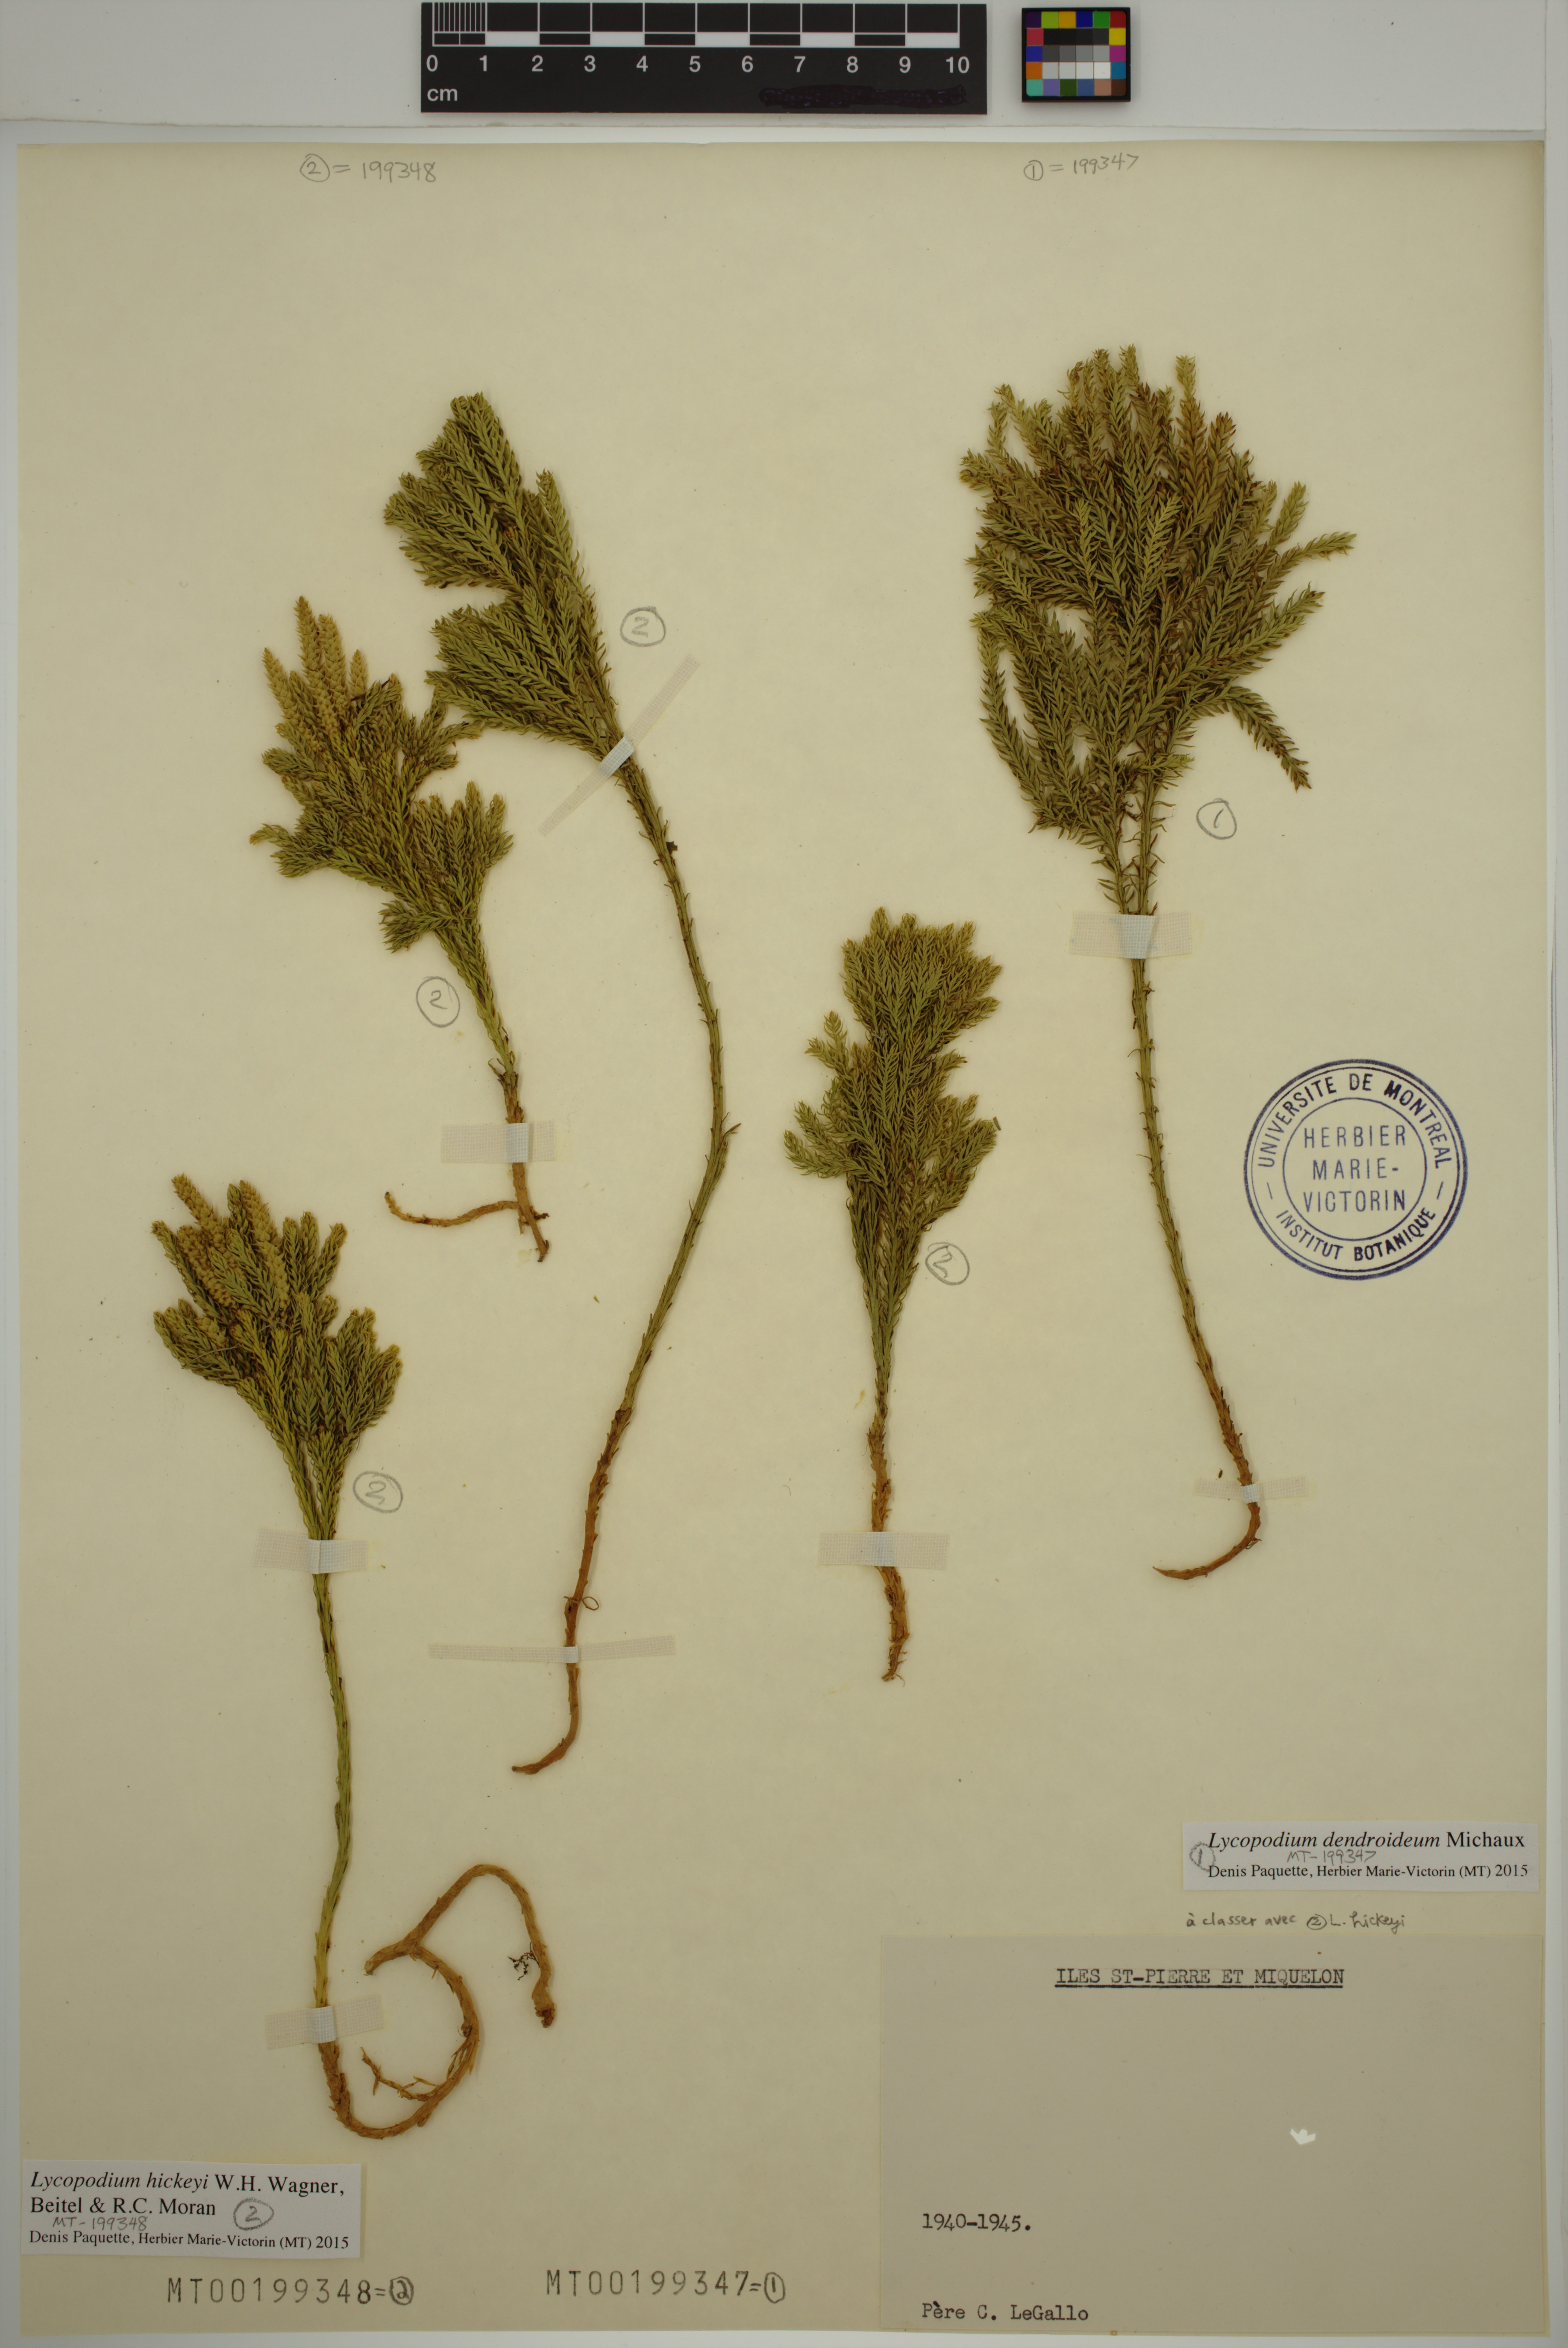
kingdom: Plantae
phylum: Tracheophyta
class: Lycopodiopsida
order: Lycopodiales
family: Lycopodiaceae
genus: Dendrolycopodium
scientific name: Dendrolycopodium hickeyi
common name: Hickey's clubmoss
